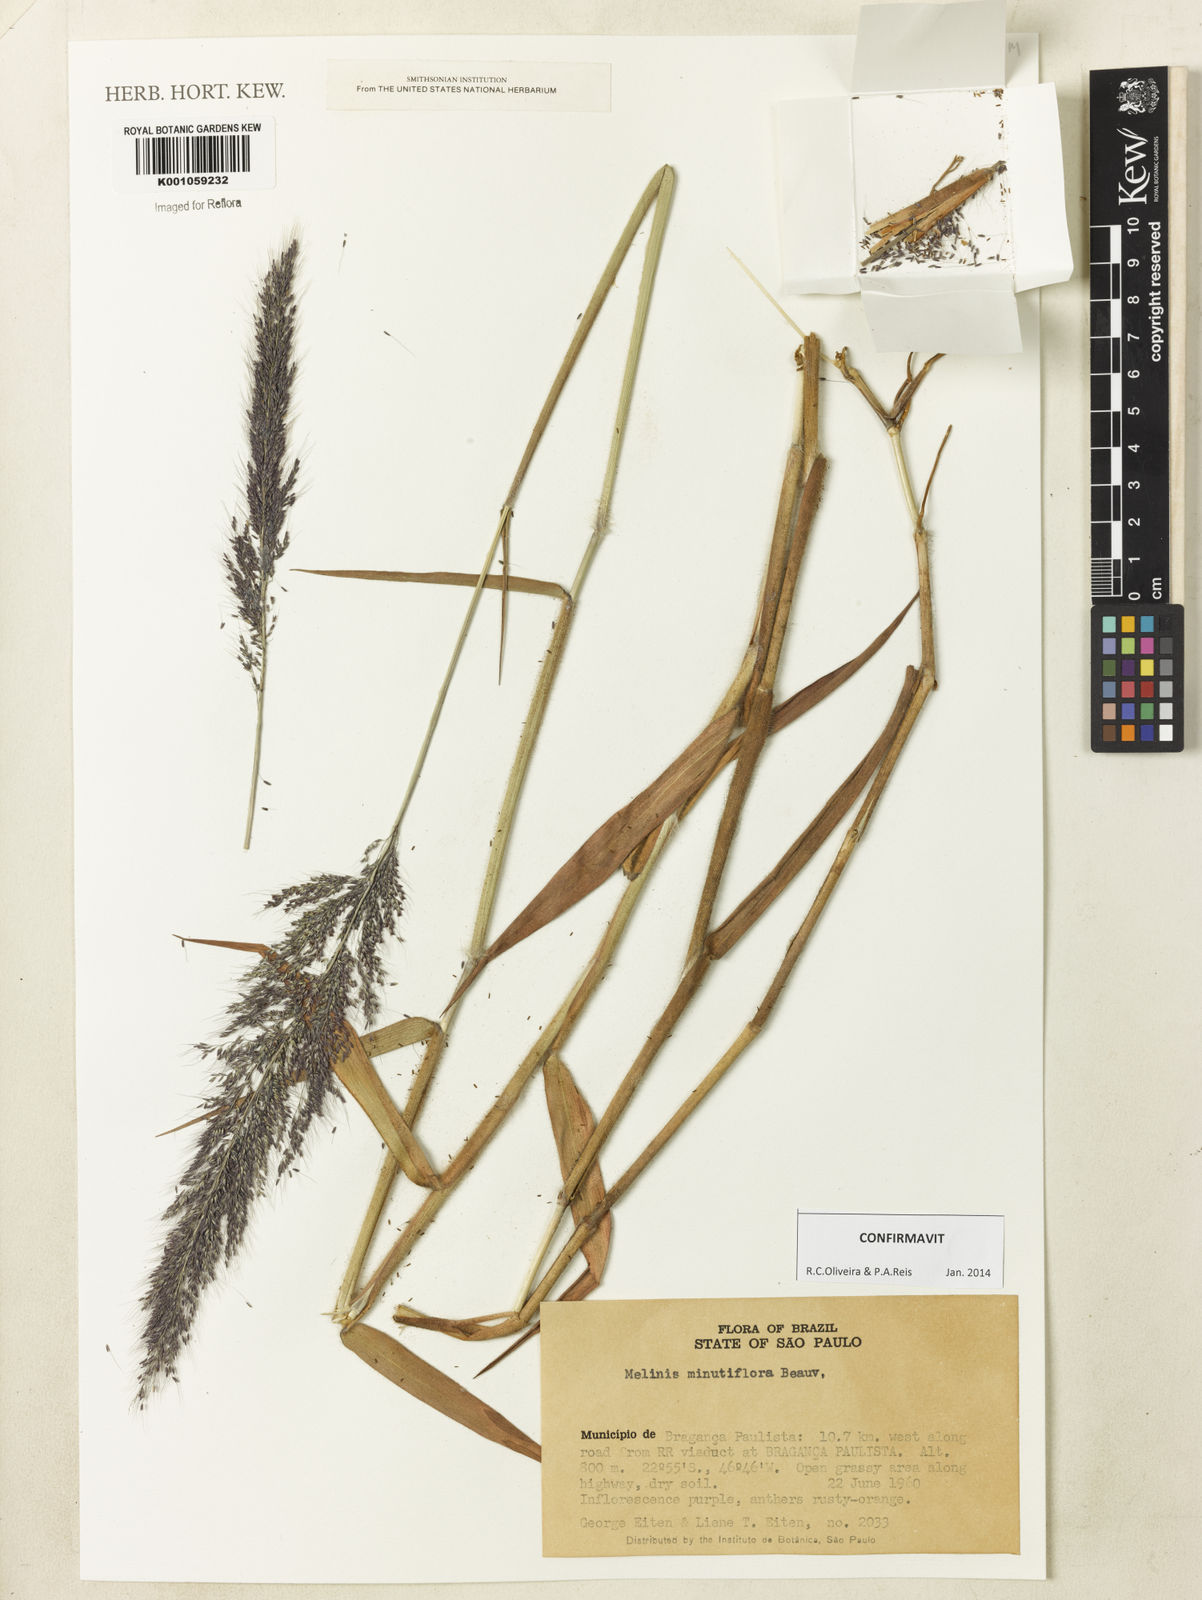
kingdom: Plantae
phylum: Tracheophyta
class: Liliopsida
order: Poales
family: Poaceae
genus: Melinis
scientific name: Melinis minutiflora
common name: Molassesgrass
